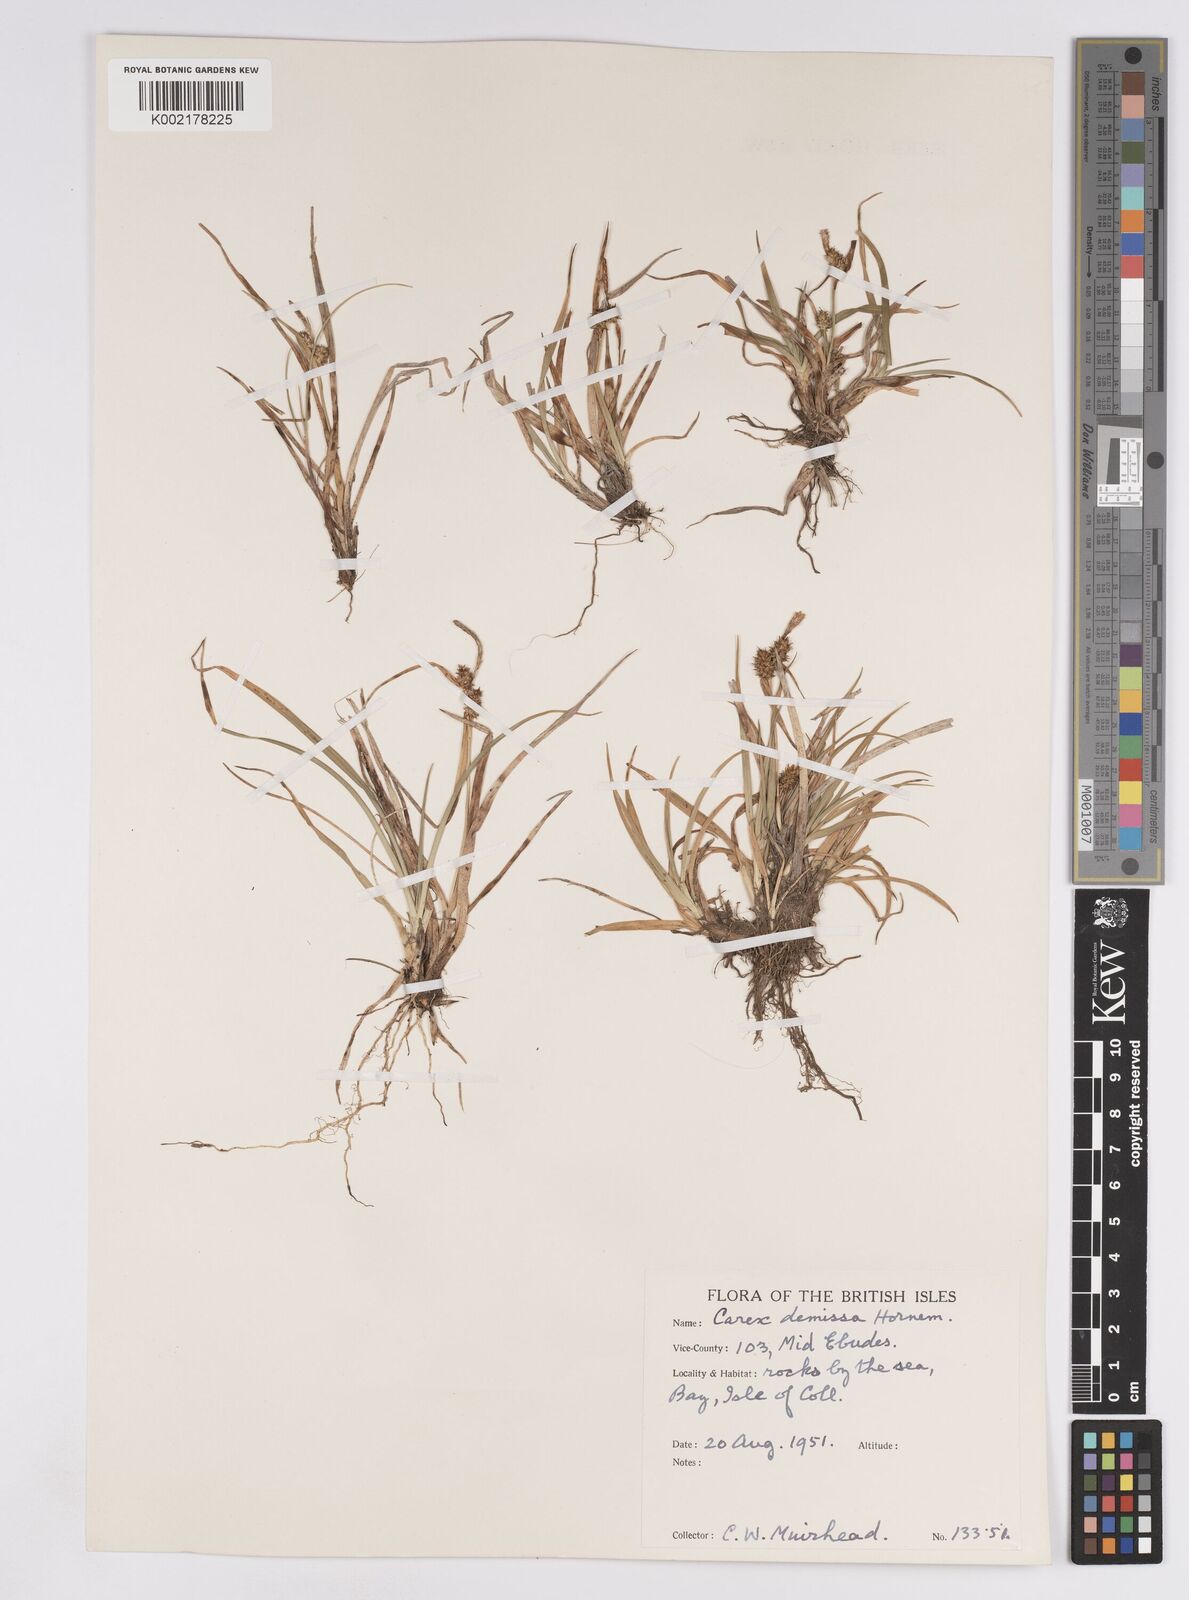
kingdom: Plantae
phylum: Tracheophyta
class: Liliopsida
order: Poales
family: Cyperaceae
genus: Carex
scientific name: Carex demissa
